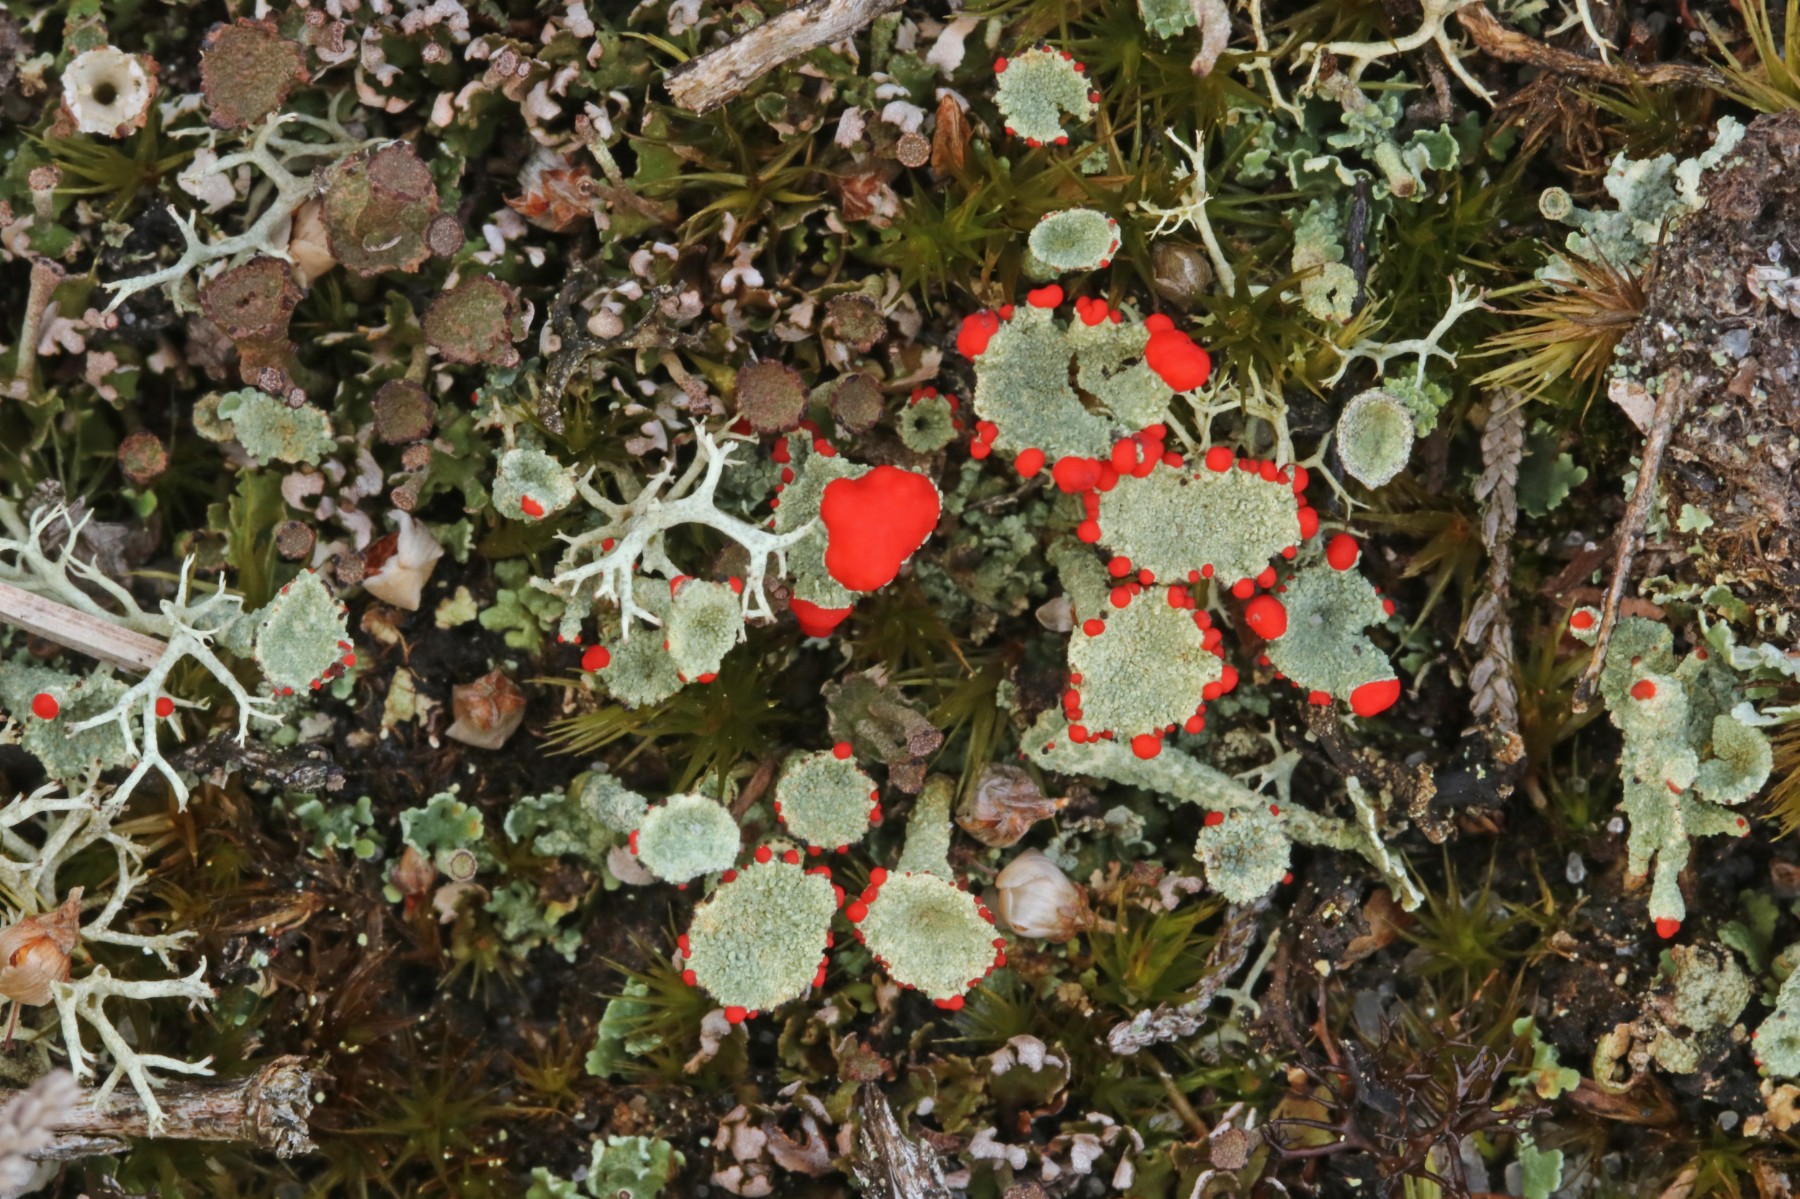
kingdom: Fungi
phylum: Ascomycota
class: Lecanoromycetes
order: Lecanorales
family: Cladoniaceae
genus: Cladonia
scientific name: Cladonia diversa
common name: rød bægerlav
